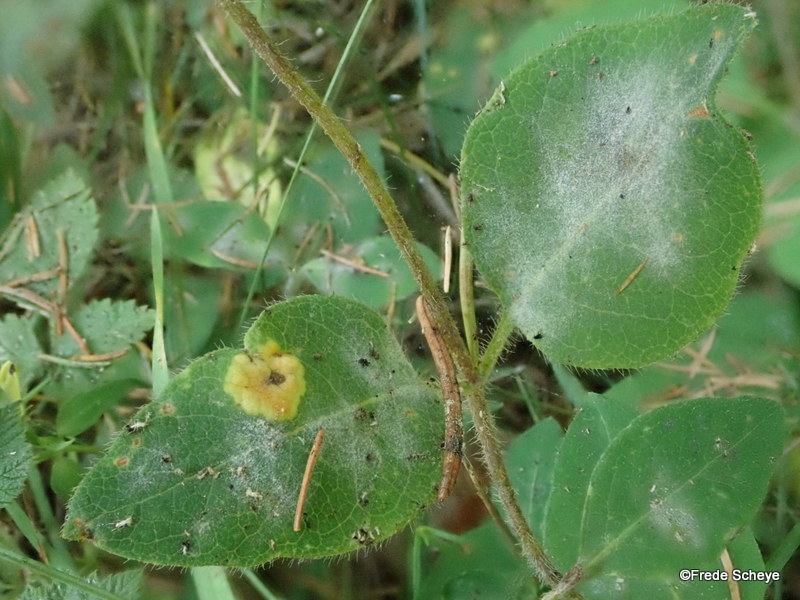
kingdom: Fungi
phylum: Ascomycota
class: Leotiomycetes
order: Helotiales
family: Erysiphaceae
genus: Erysiphe
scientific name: Erysiphe lonicerae
